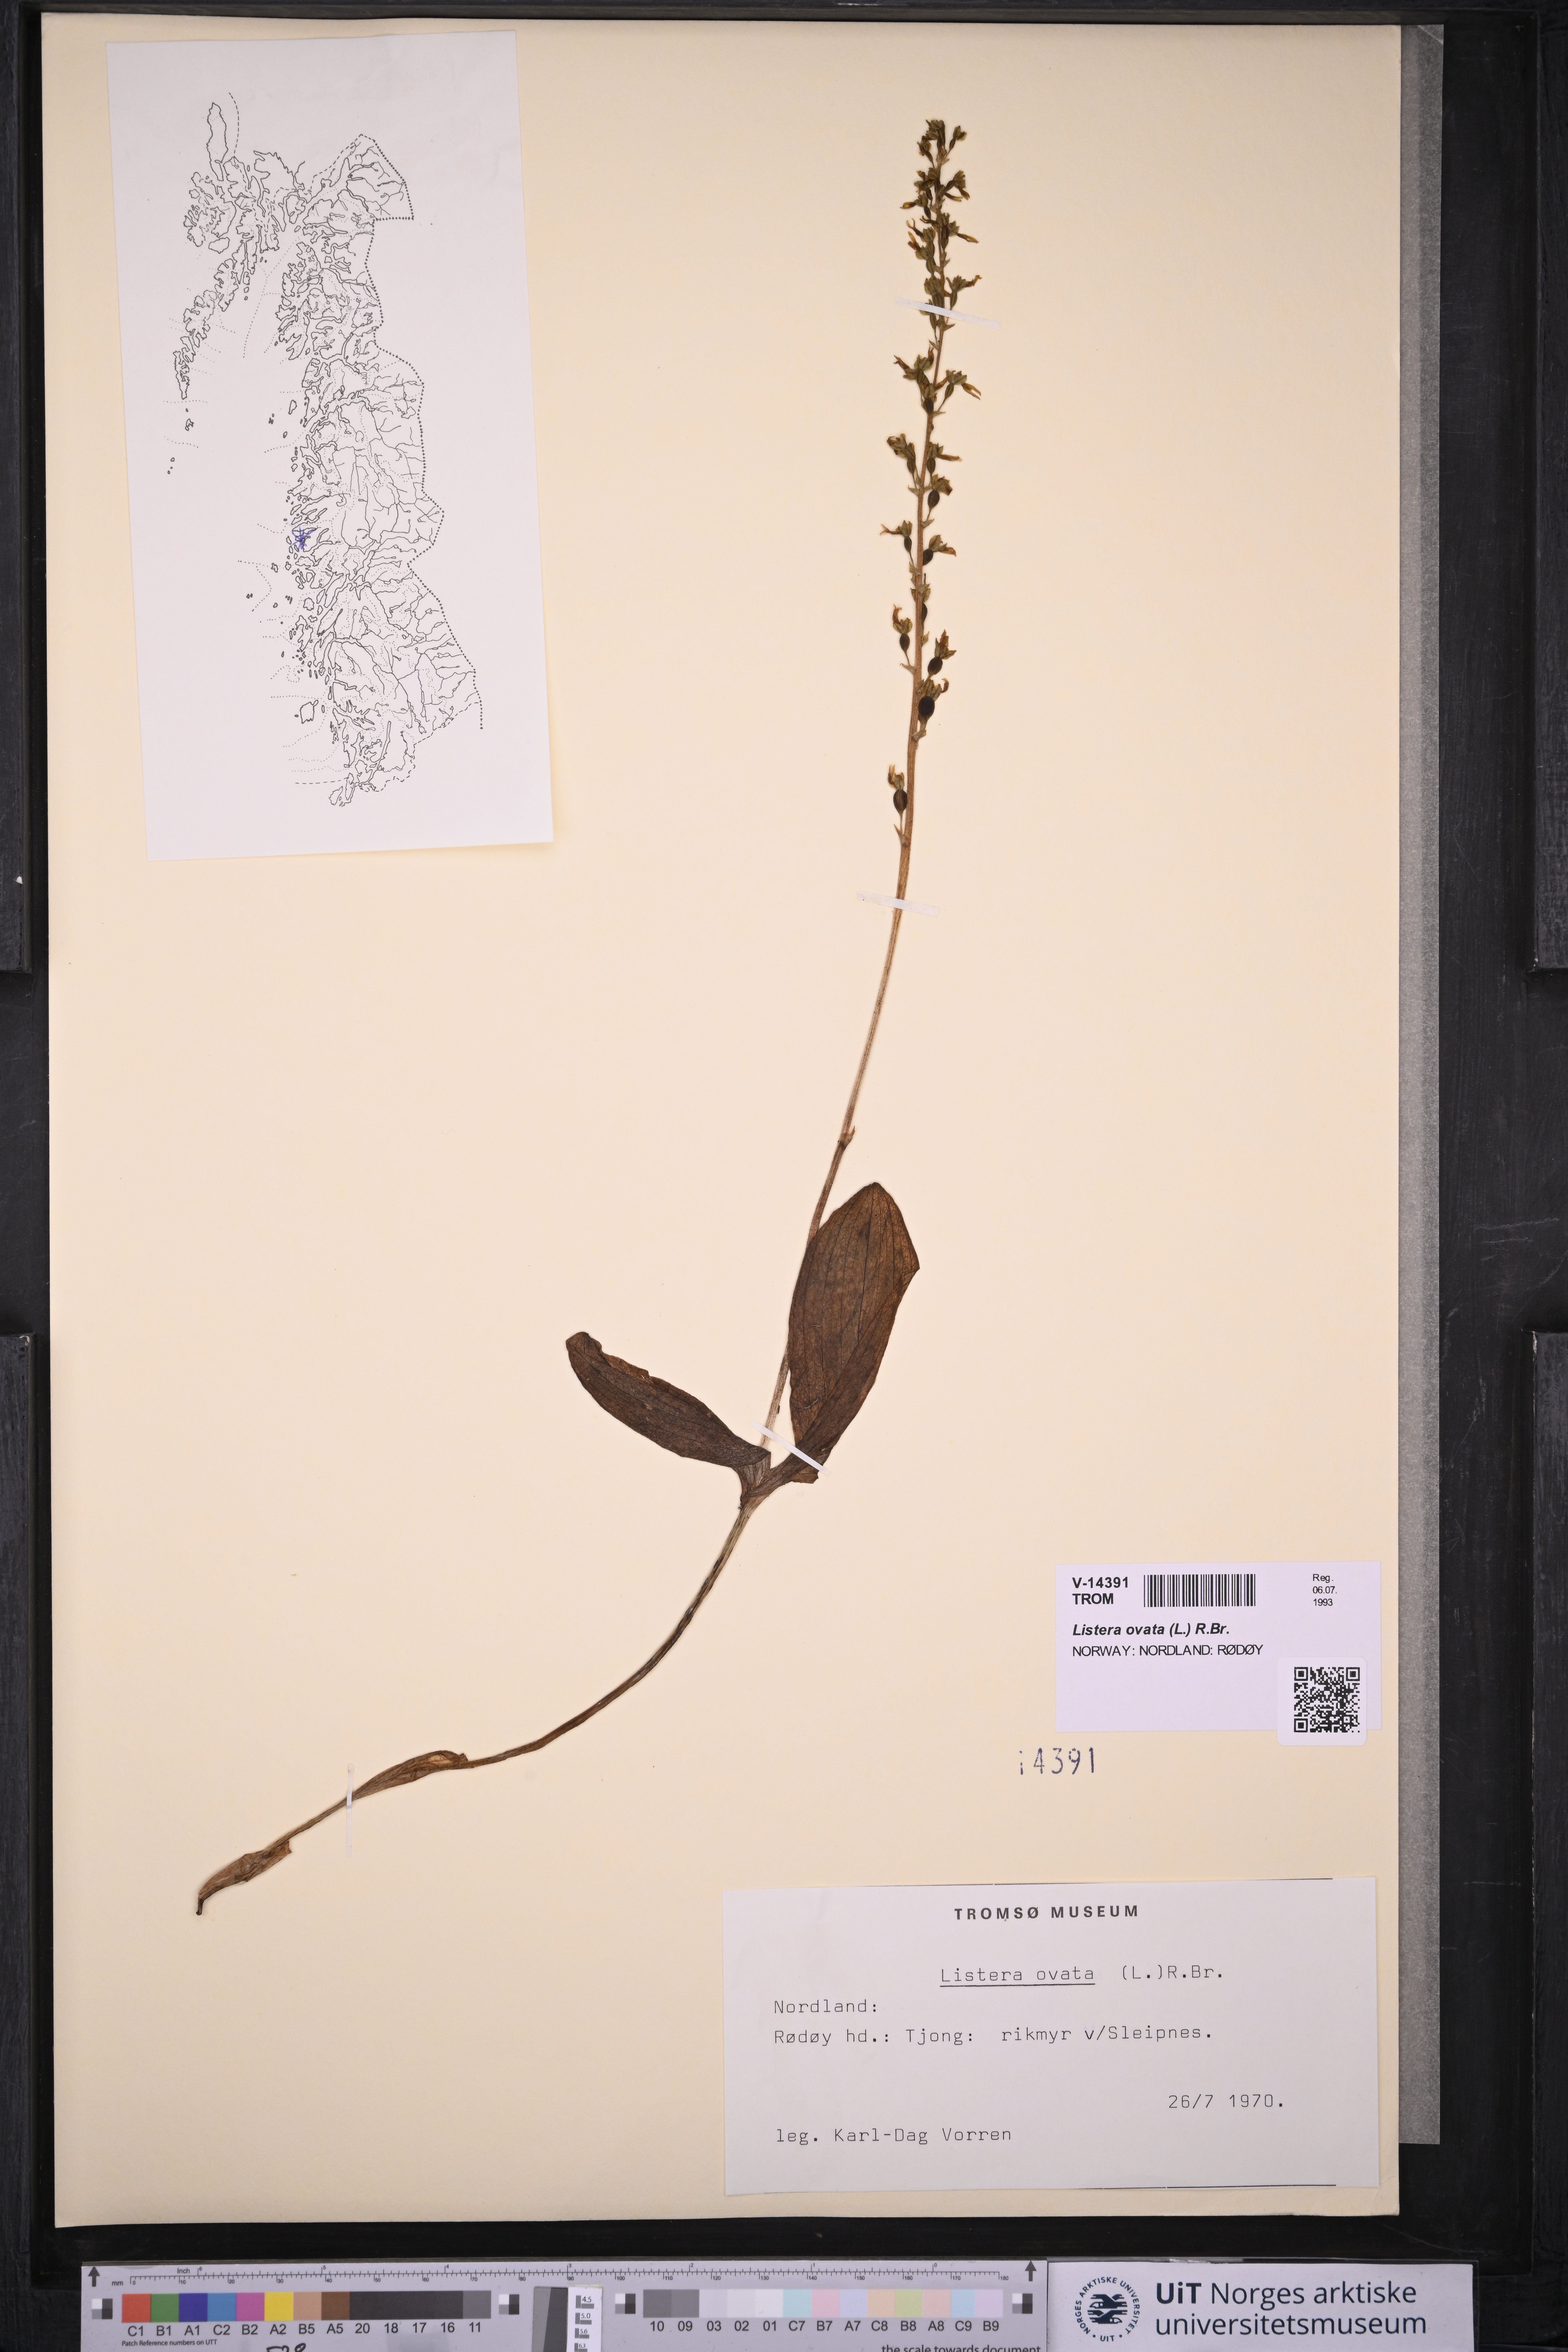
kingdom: Plantae
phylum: Tracheophyta
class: Liliopsida
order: Asparagales
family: Orchidaceae
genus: Neottia
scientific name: Neottia ovata
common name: Common twayblade
